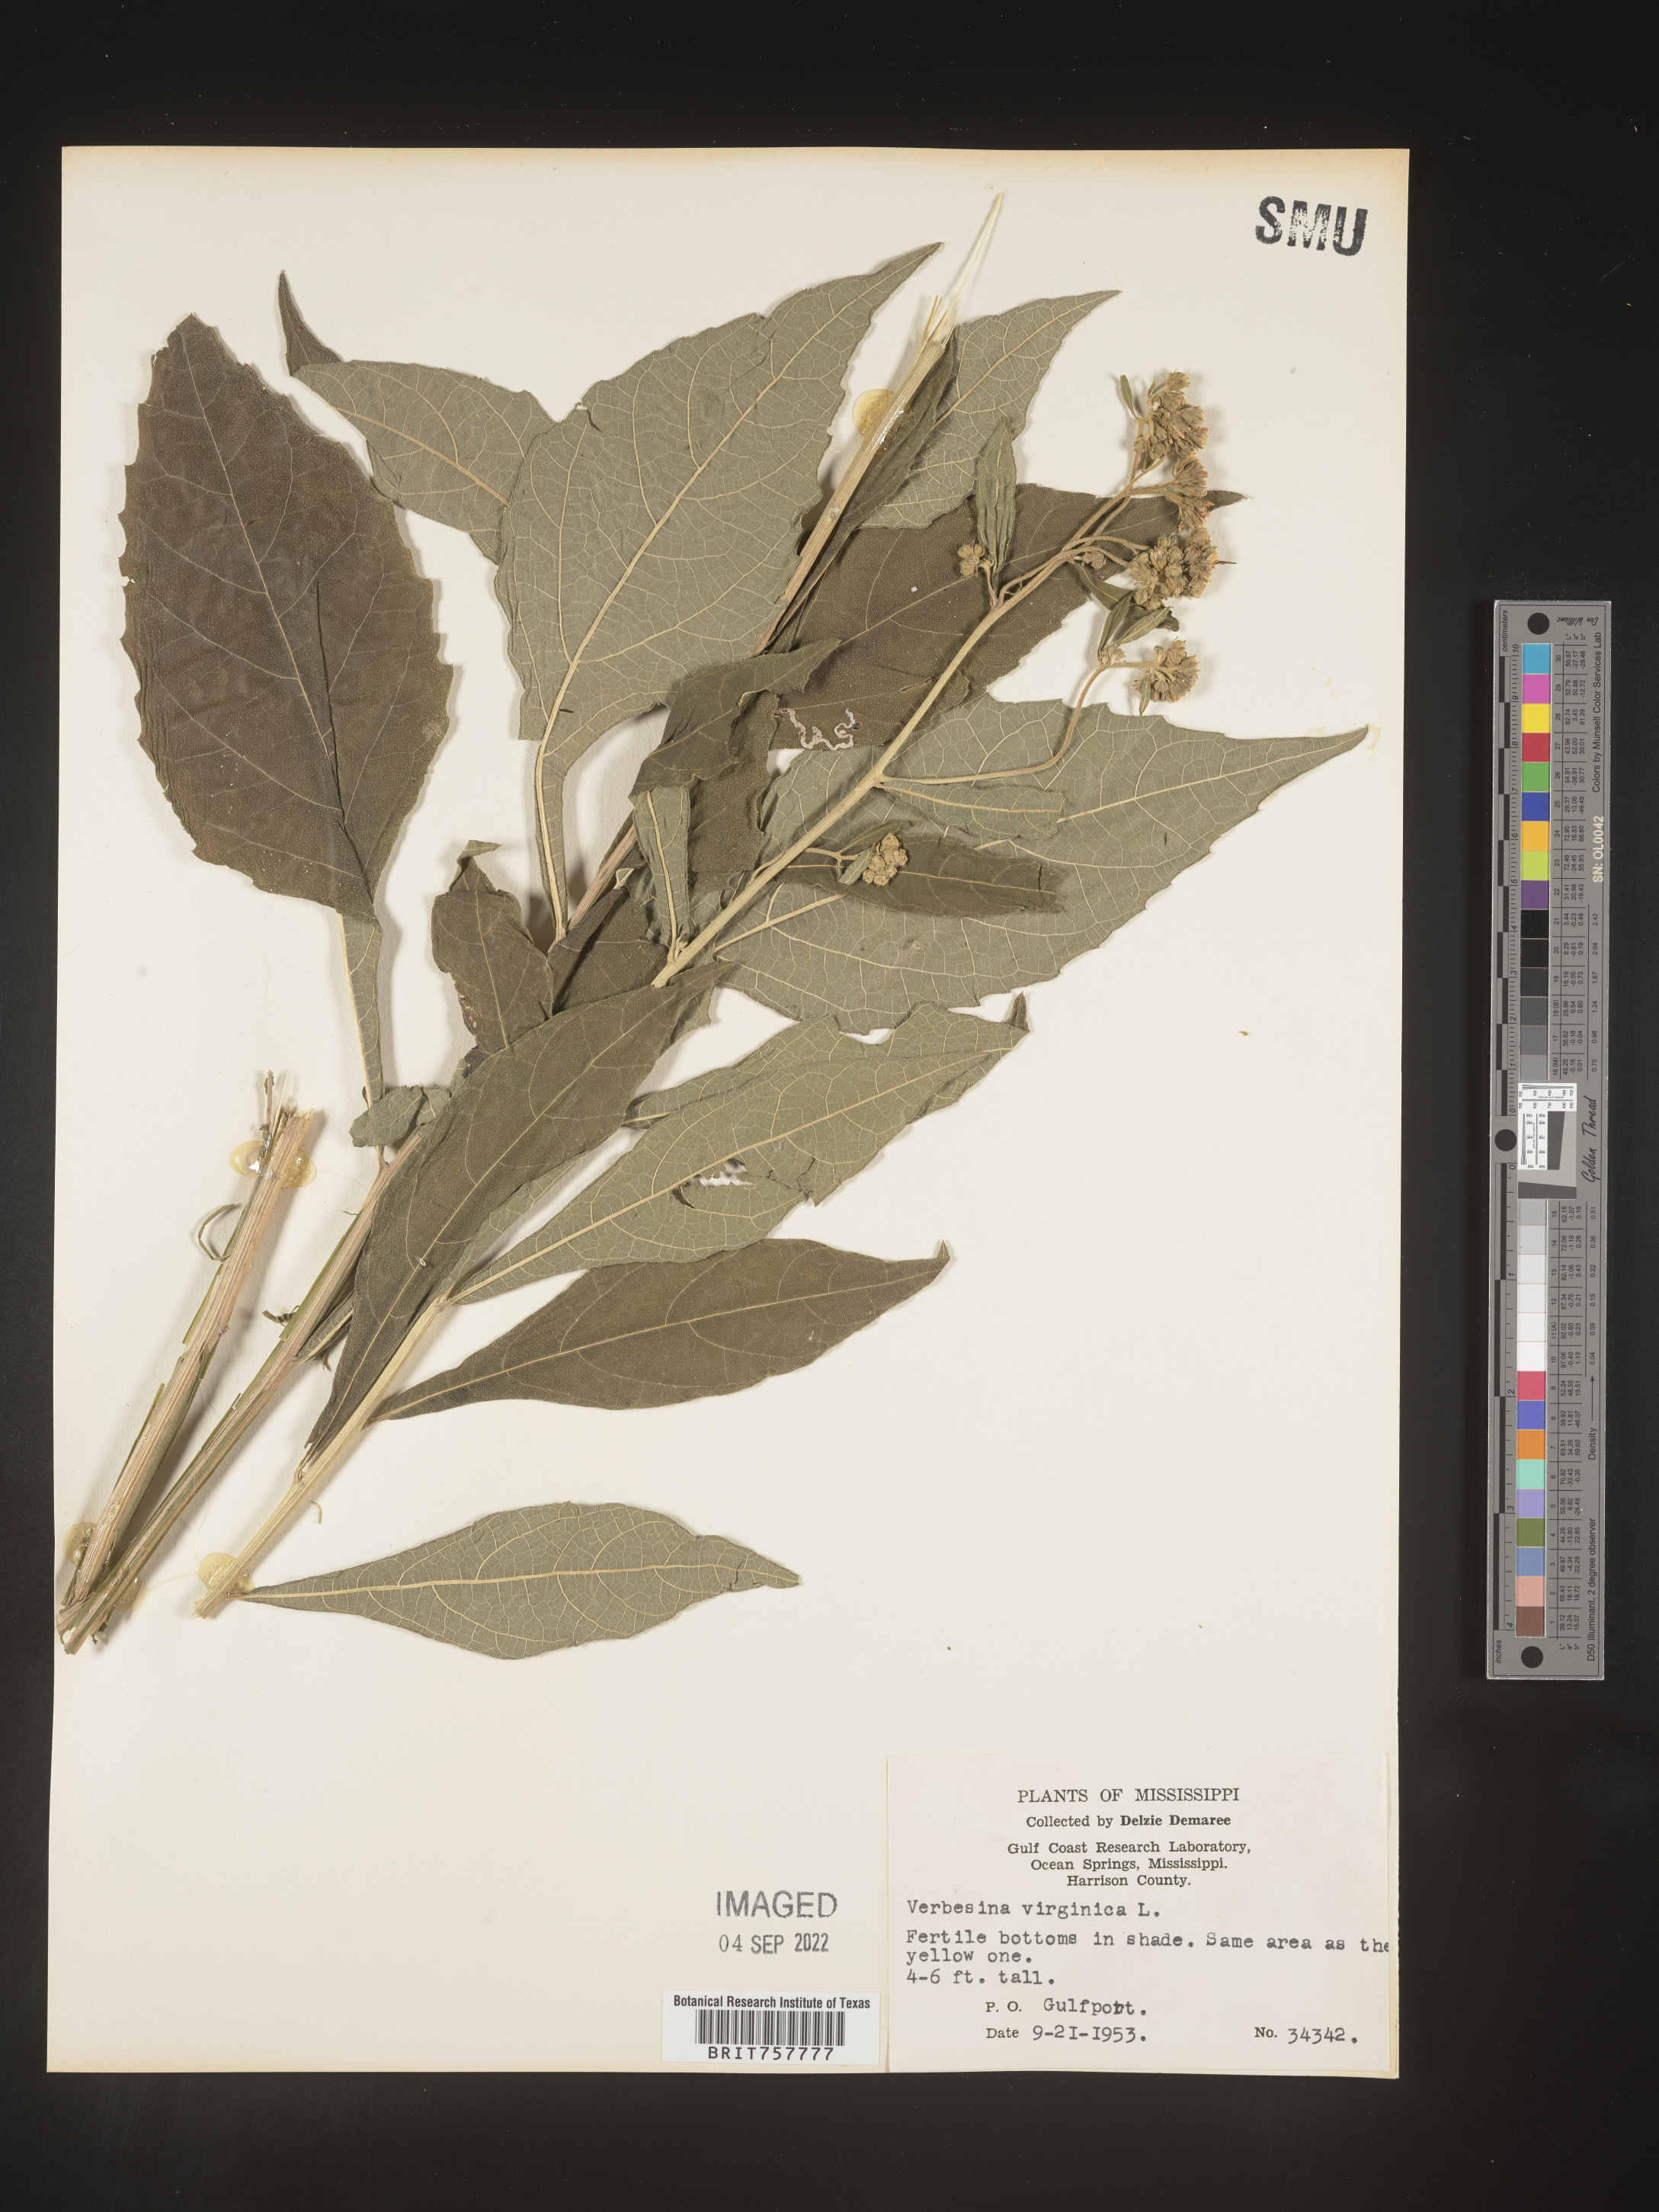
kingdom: Plantae
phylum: Tracheophyta
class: Magnoliopsida
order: Asterales
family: Asteraceae
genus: Verbesina
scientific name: Verbesina virginica
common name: Frostweed
